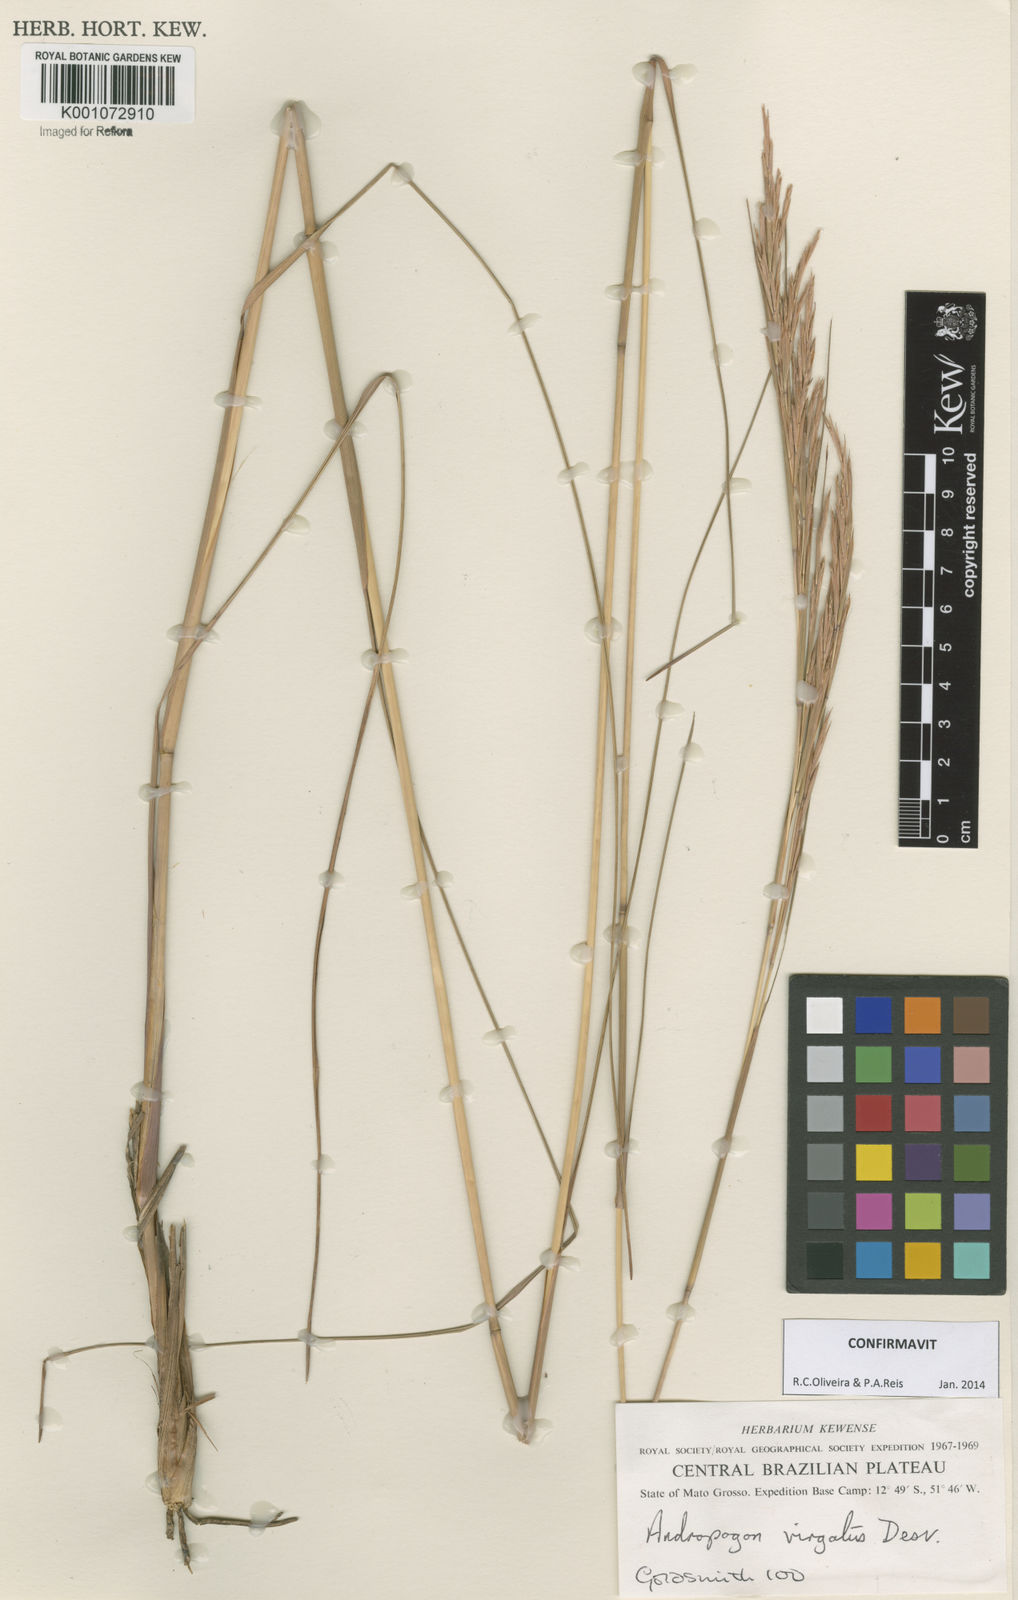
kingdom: Plantae
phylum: Tracheophyta
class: Liliopsida
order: Poales
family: Poaceae
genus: Andropogon
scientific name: Andropogon virgatus
